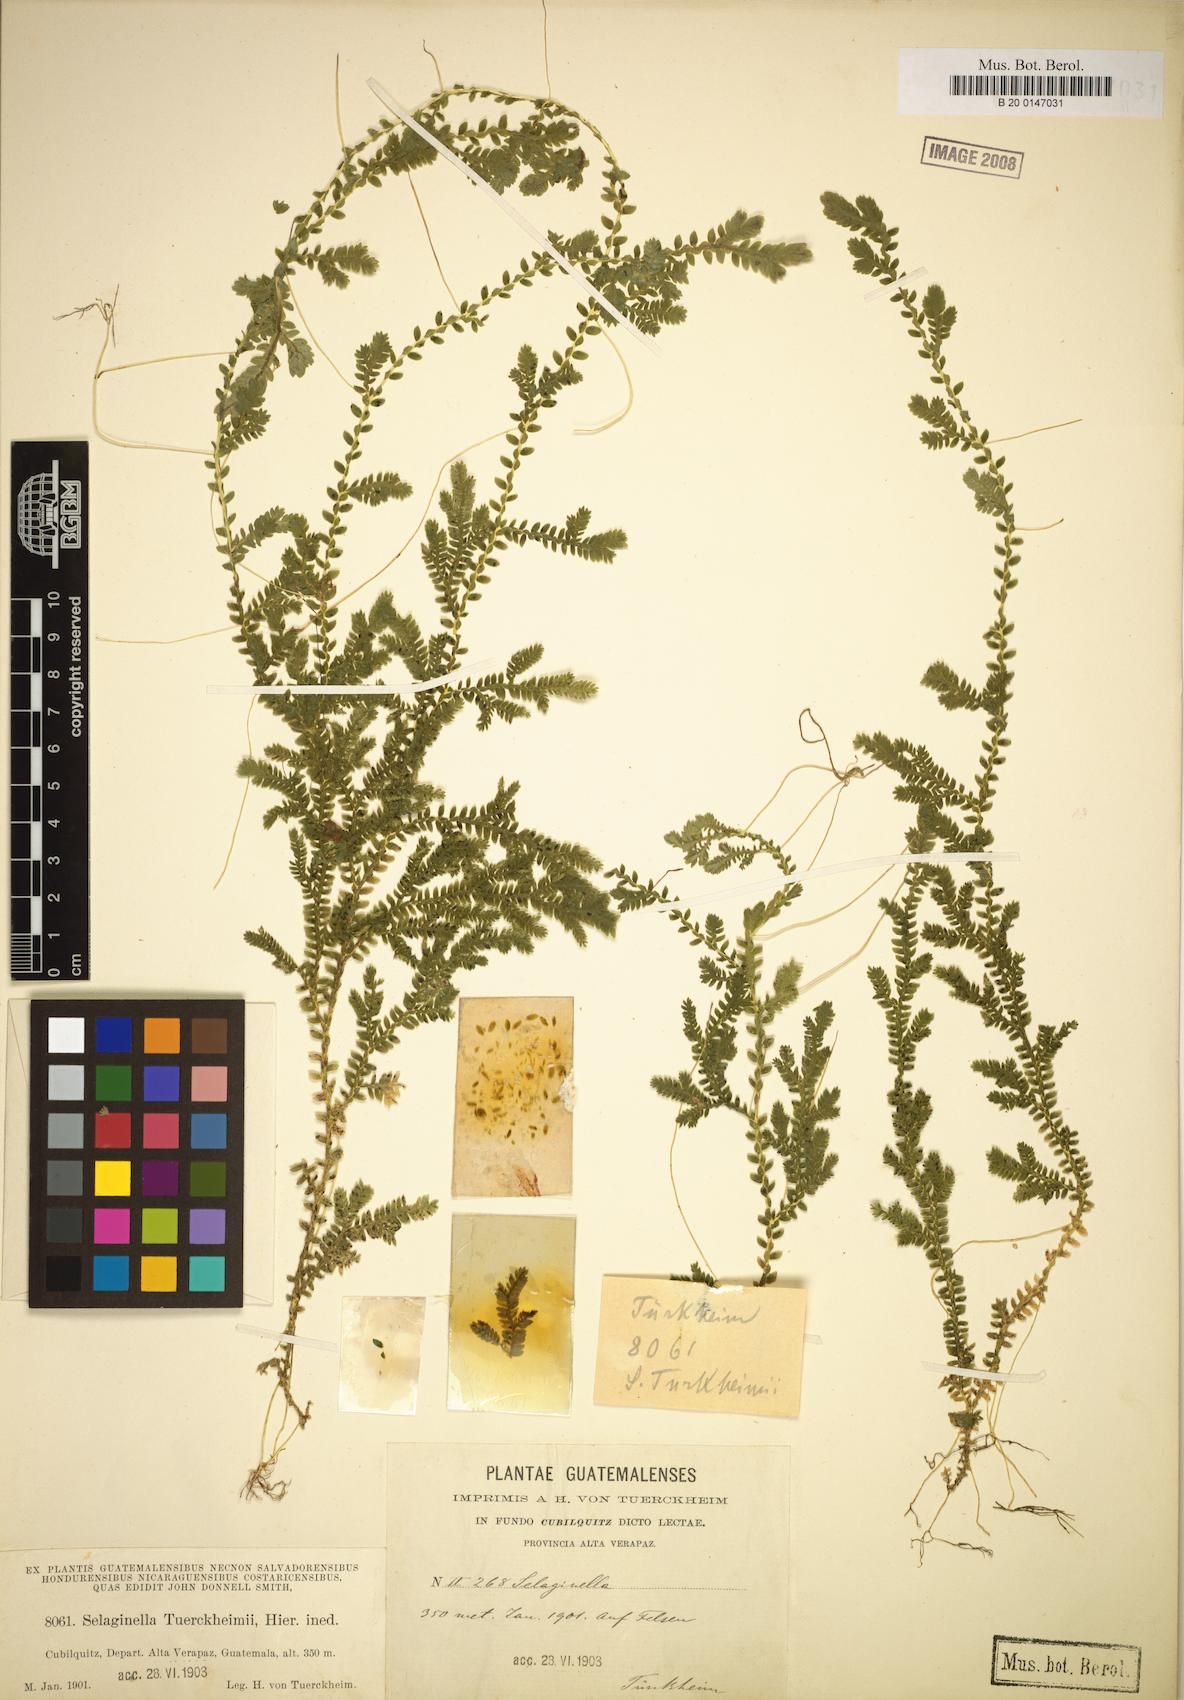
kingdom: Plantae
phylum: Tracheophyta
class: Lycopodiopsida
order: Selaginellales
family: Selaginellaceae
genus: Selaginella
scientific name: Selaginella sertata
